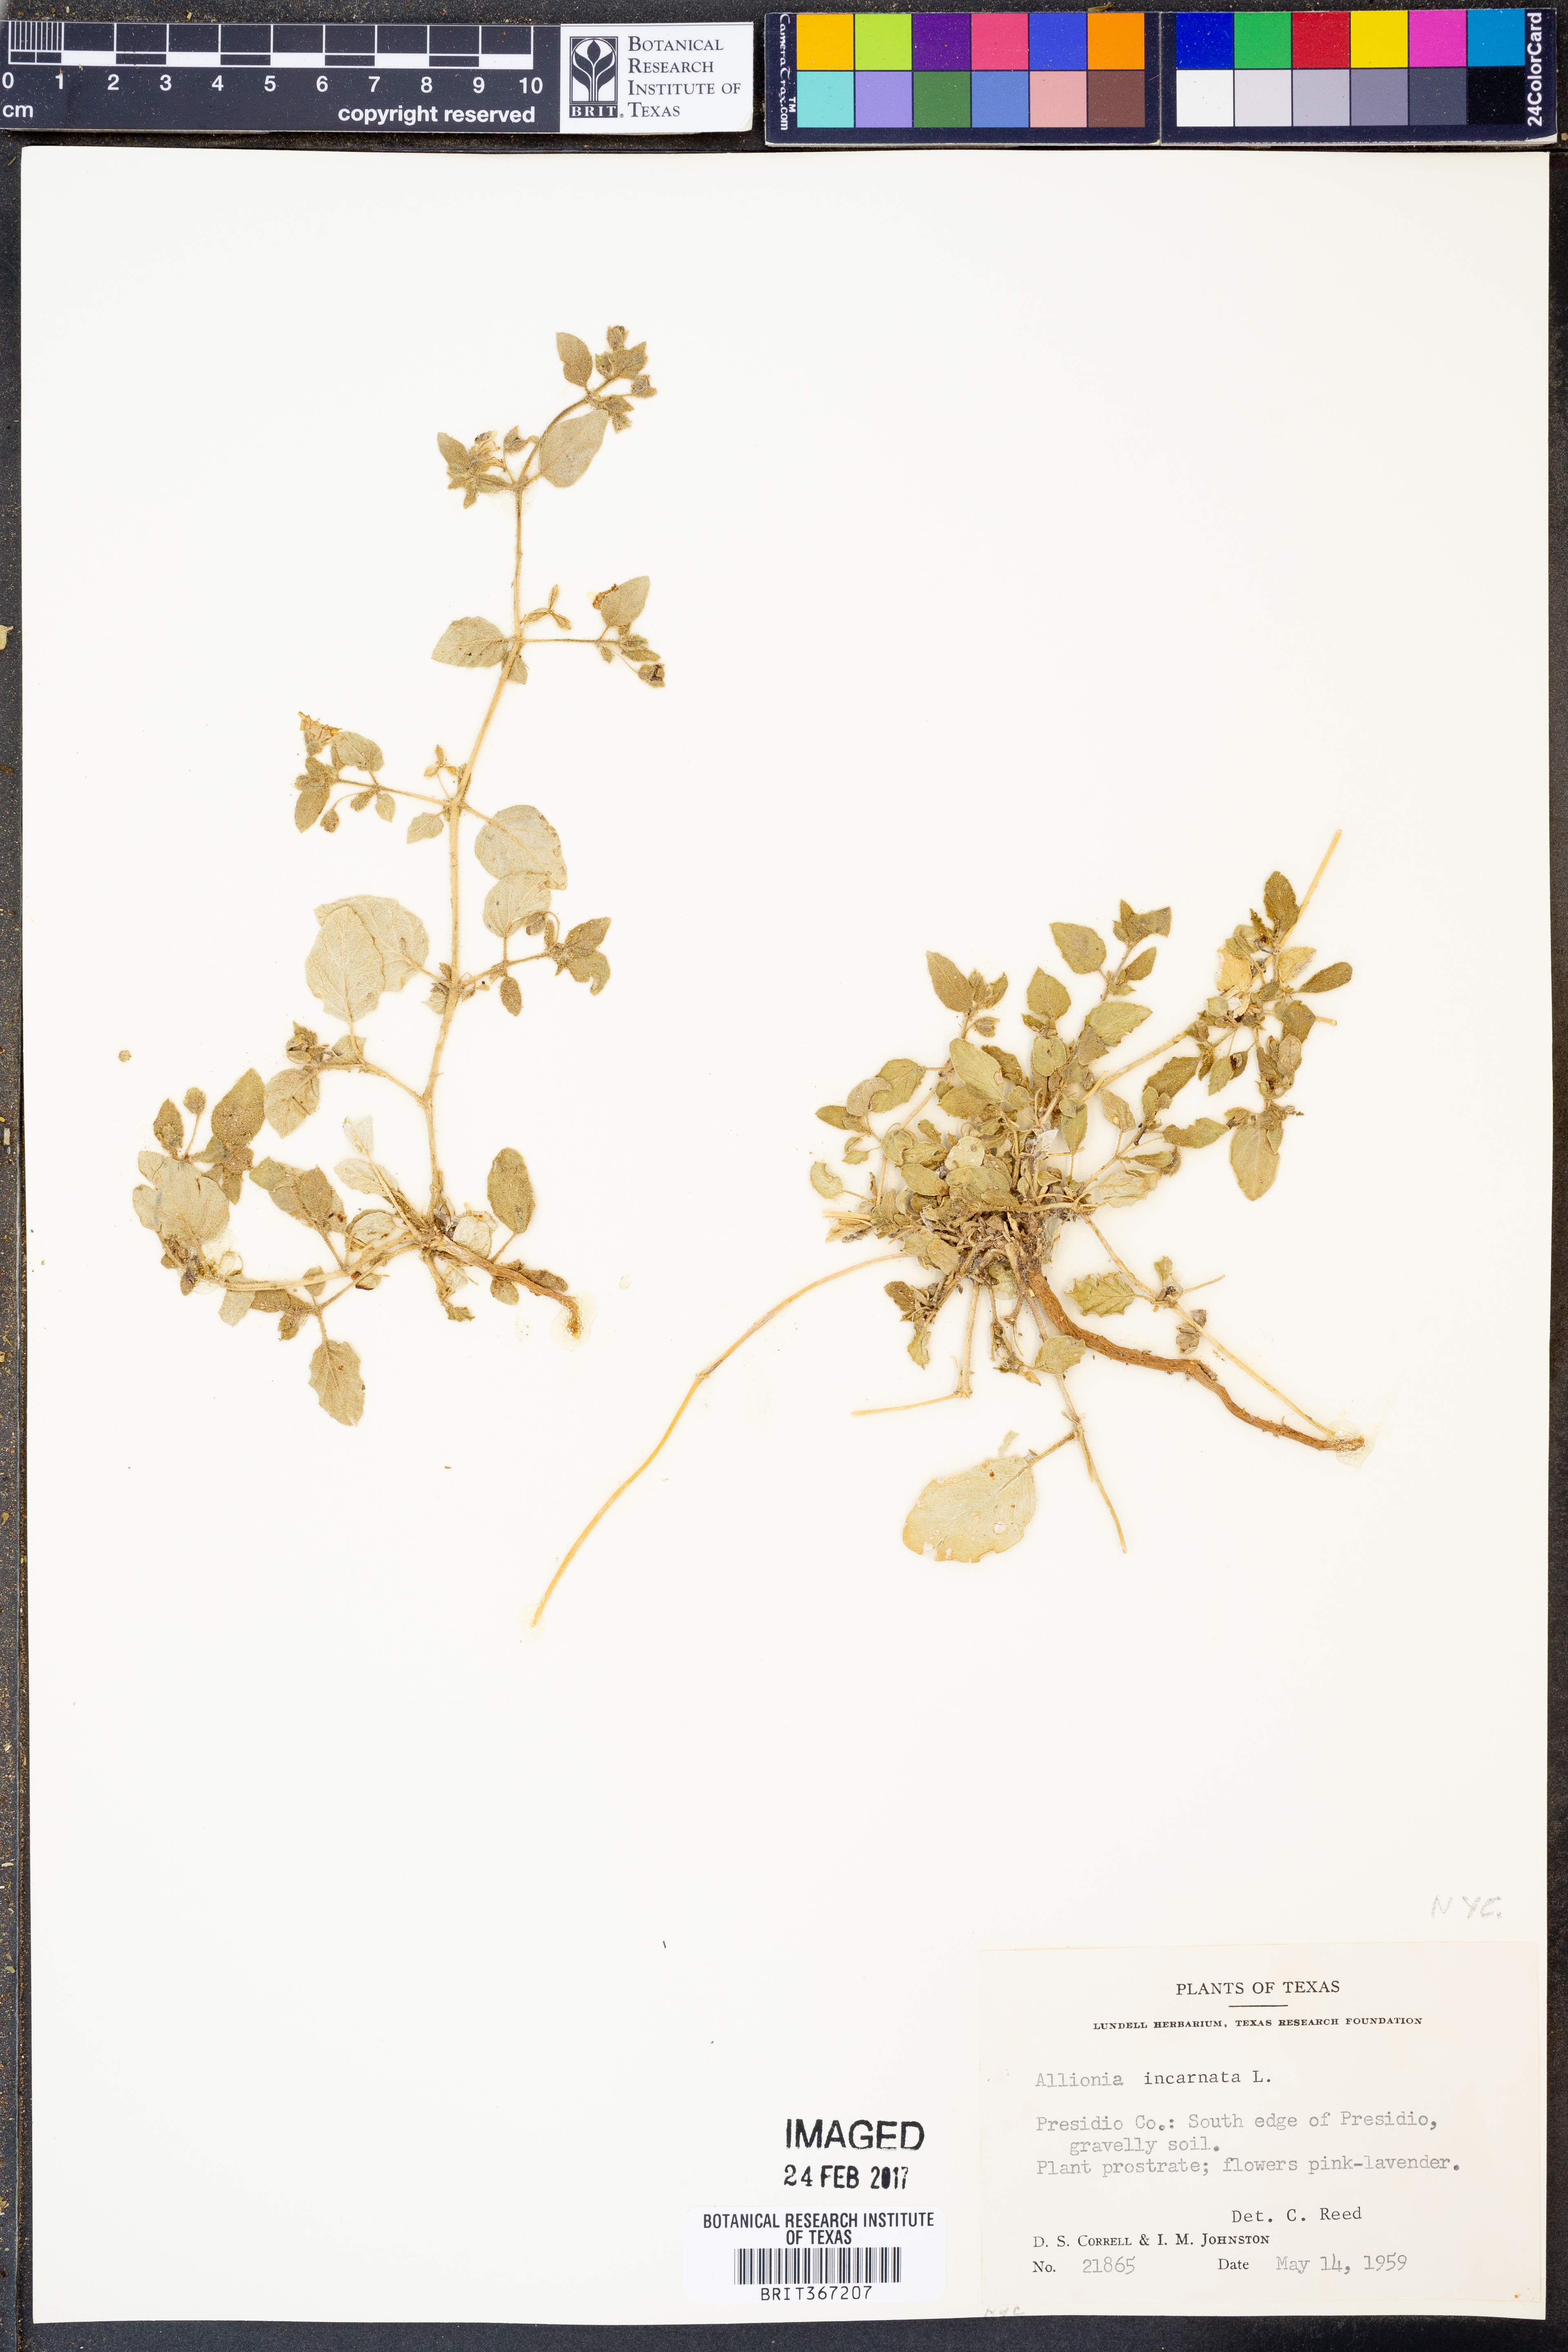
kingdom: Plantae
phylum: Tracheophyta
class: Magnoliopsida
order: Caryophyllales
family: Nyctaginaceae
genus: Allionia
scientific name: Allionia incarnata
